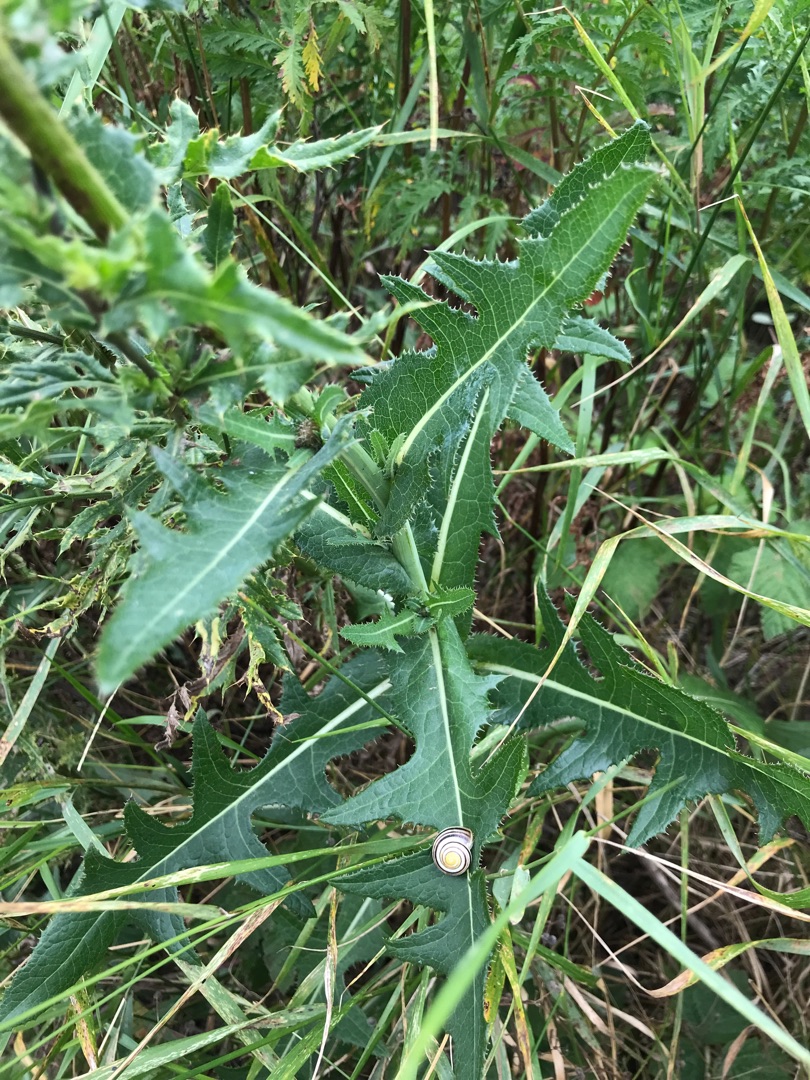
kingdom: Plantae
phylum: Tracheophyta
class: Magnoliopsida
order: Asterales
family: Asteraceae
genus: Sonchus
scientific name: Sonchus arvensis
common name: Ager-svinemælk
